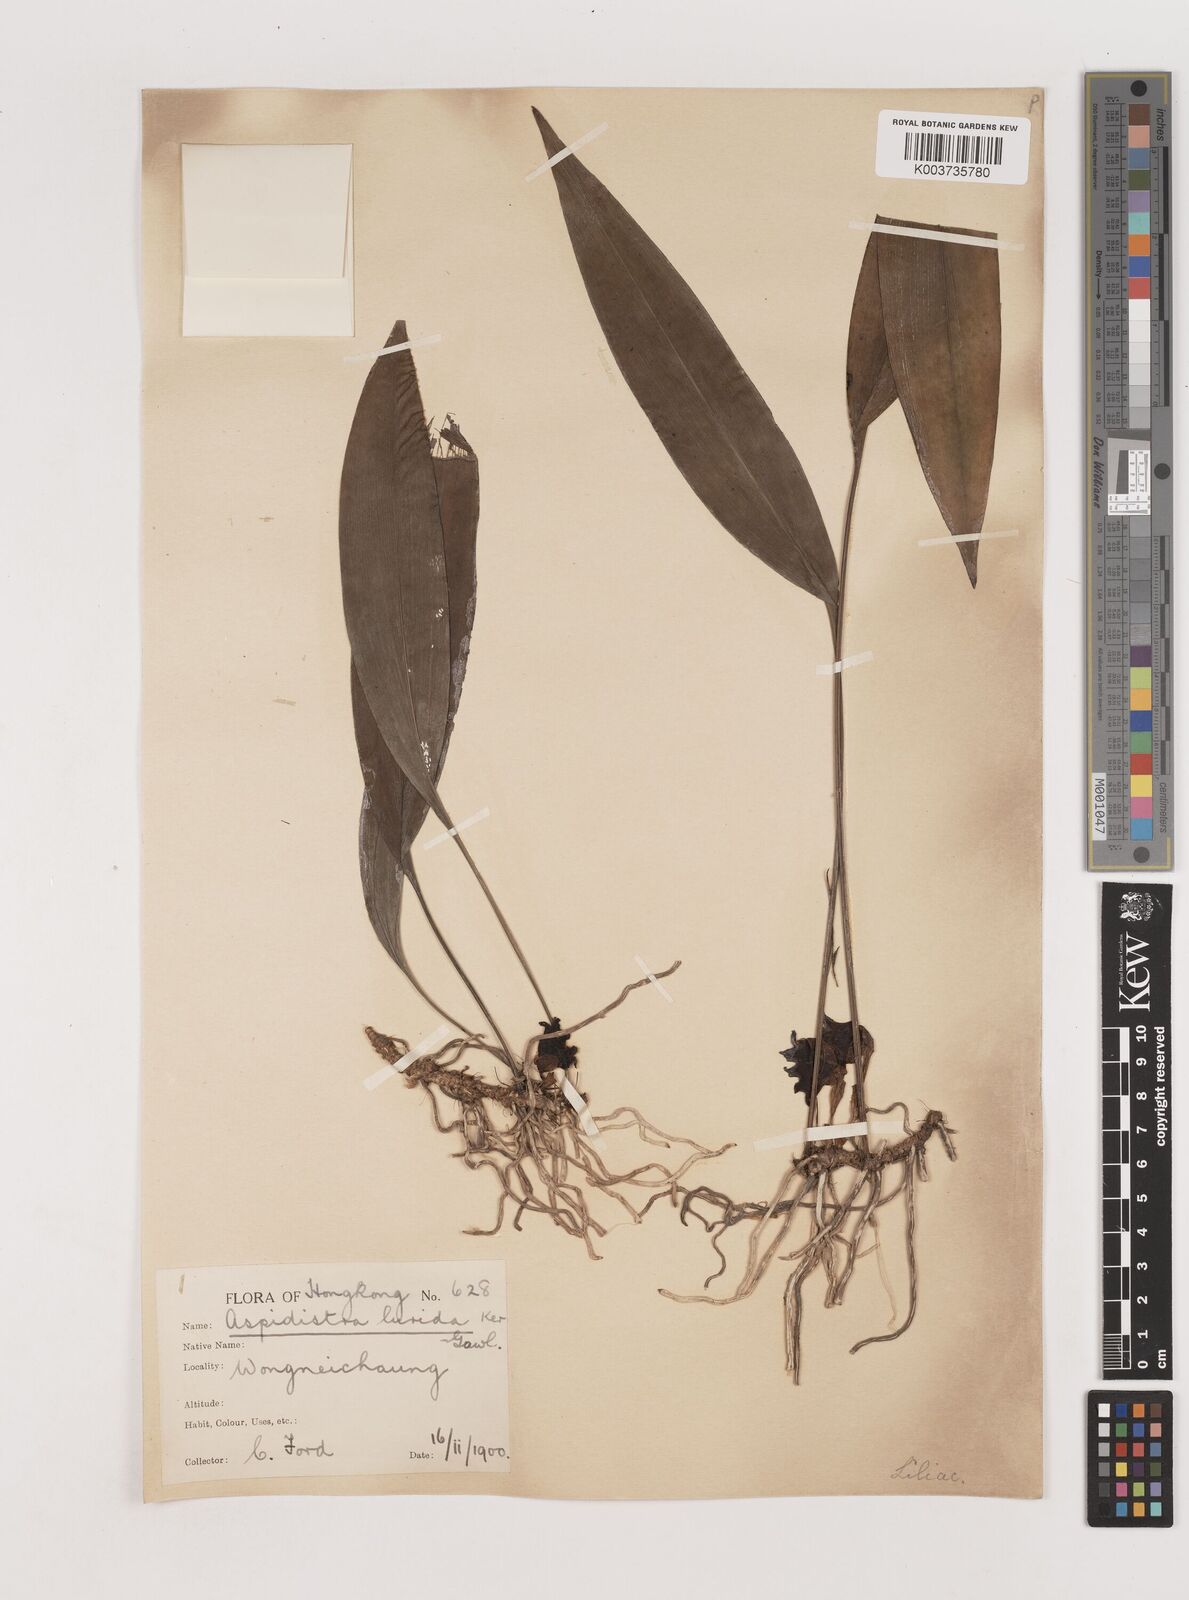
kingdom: Plantae
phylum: Tracheophyta
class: Liliopsida
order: Asparagales
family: Asparagaceae
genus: Aspidistra
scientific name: Aspidistra lurida
